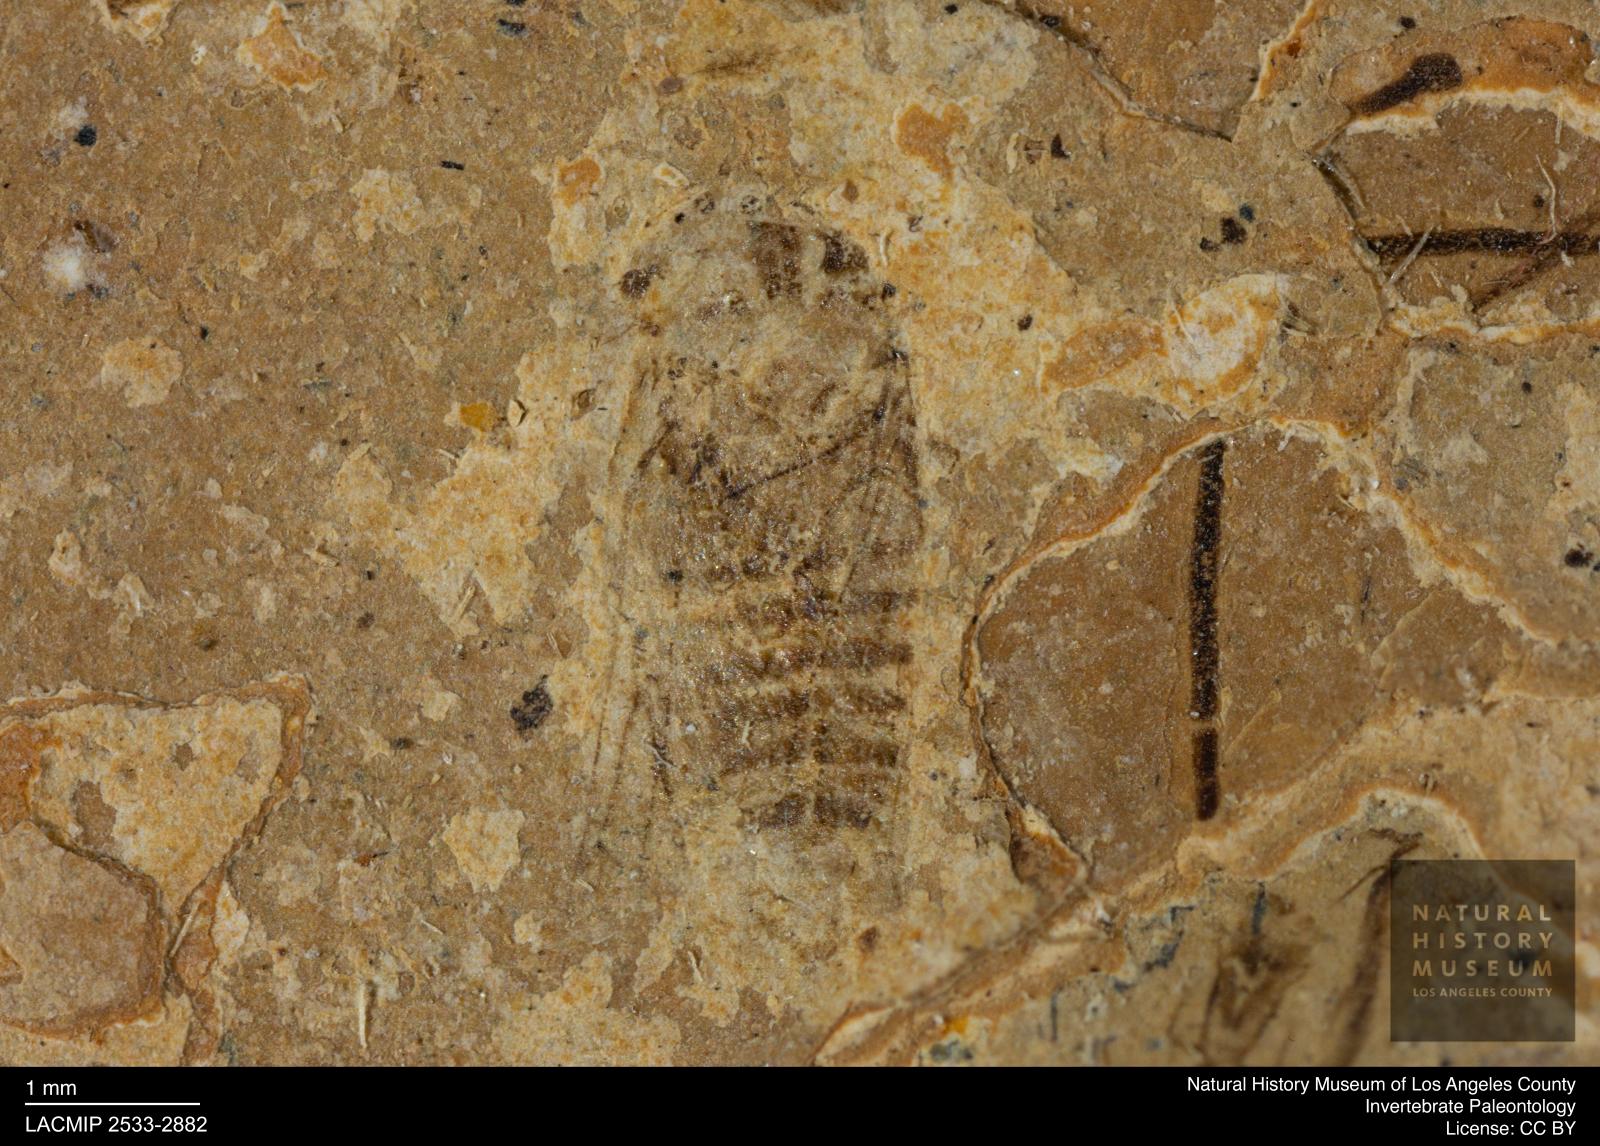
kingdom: Animalia
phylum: Arthropoda
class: Insecta
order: Hemiptera
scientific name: Hemiptera
